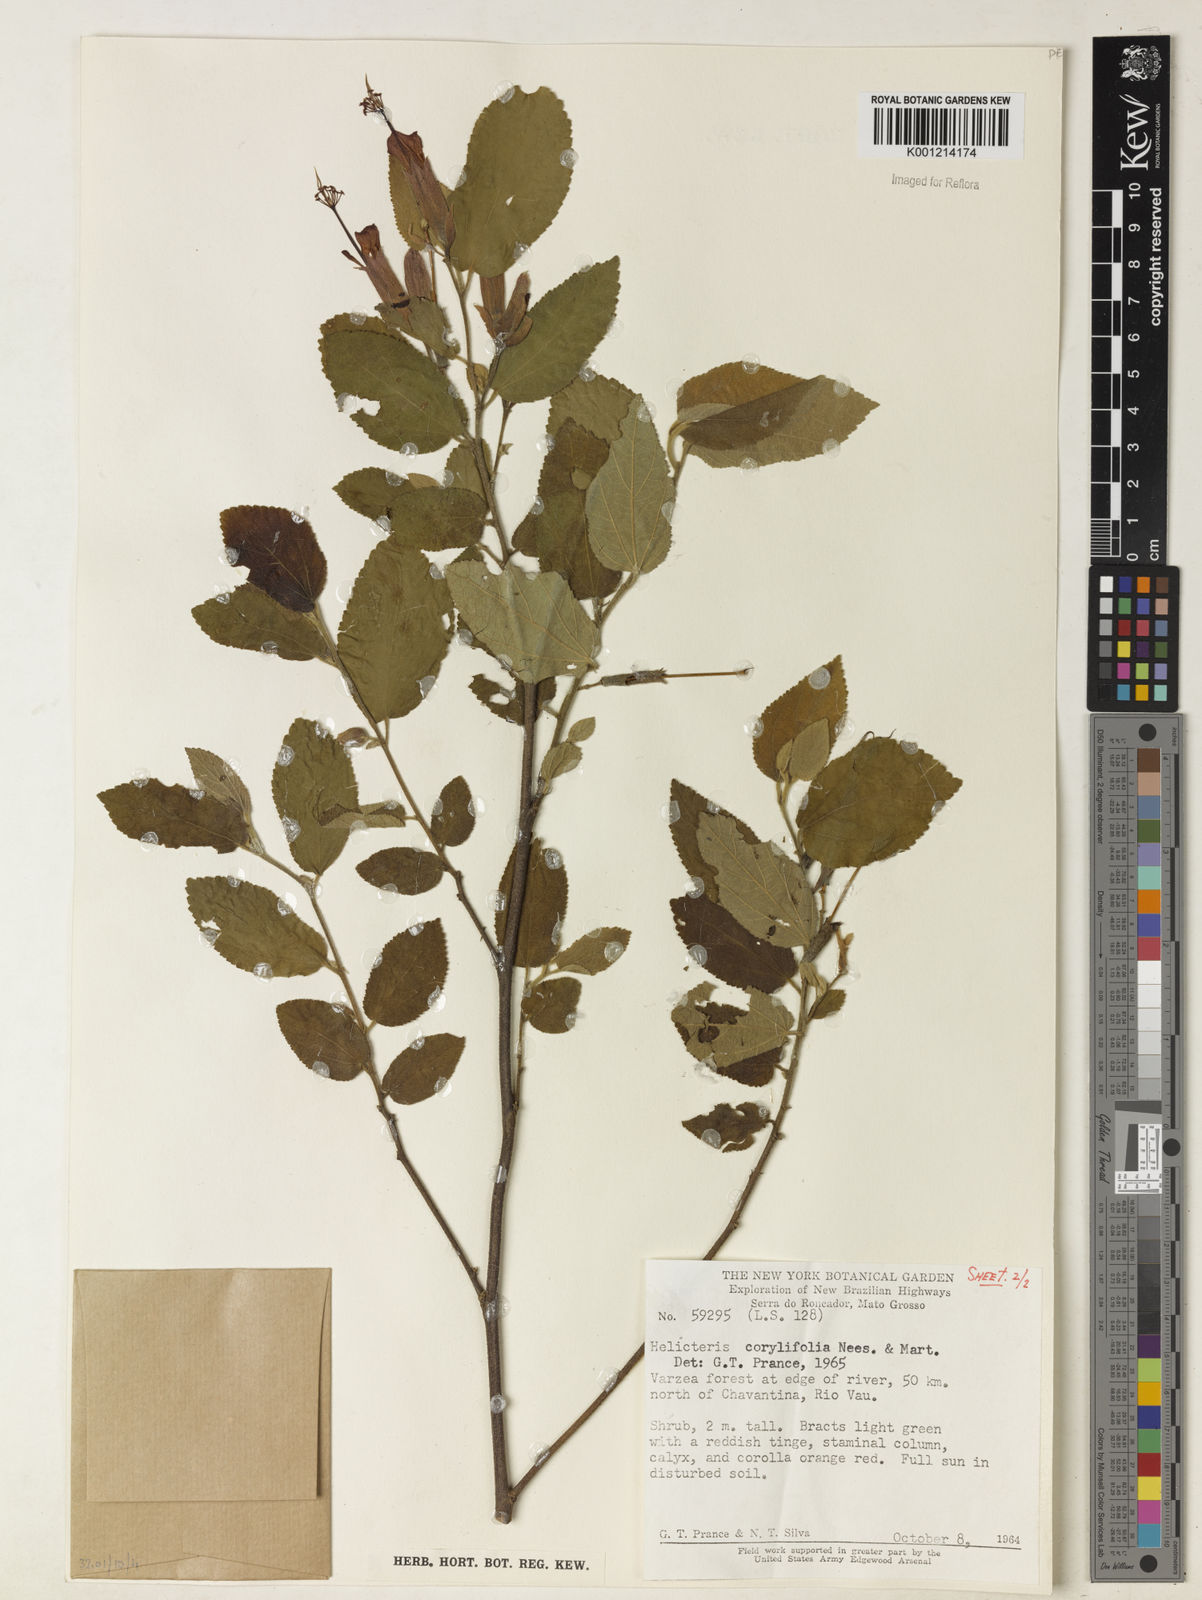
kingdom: Plantae
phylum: Tracheophyta
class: Magnoliopsida
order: Malvales
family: Malvaceae
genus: Helicteres
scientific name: Helicteres corylifolia
